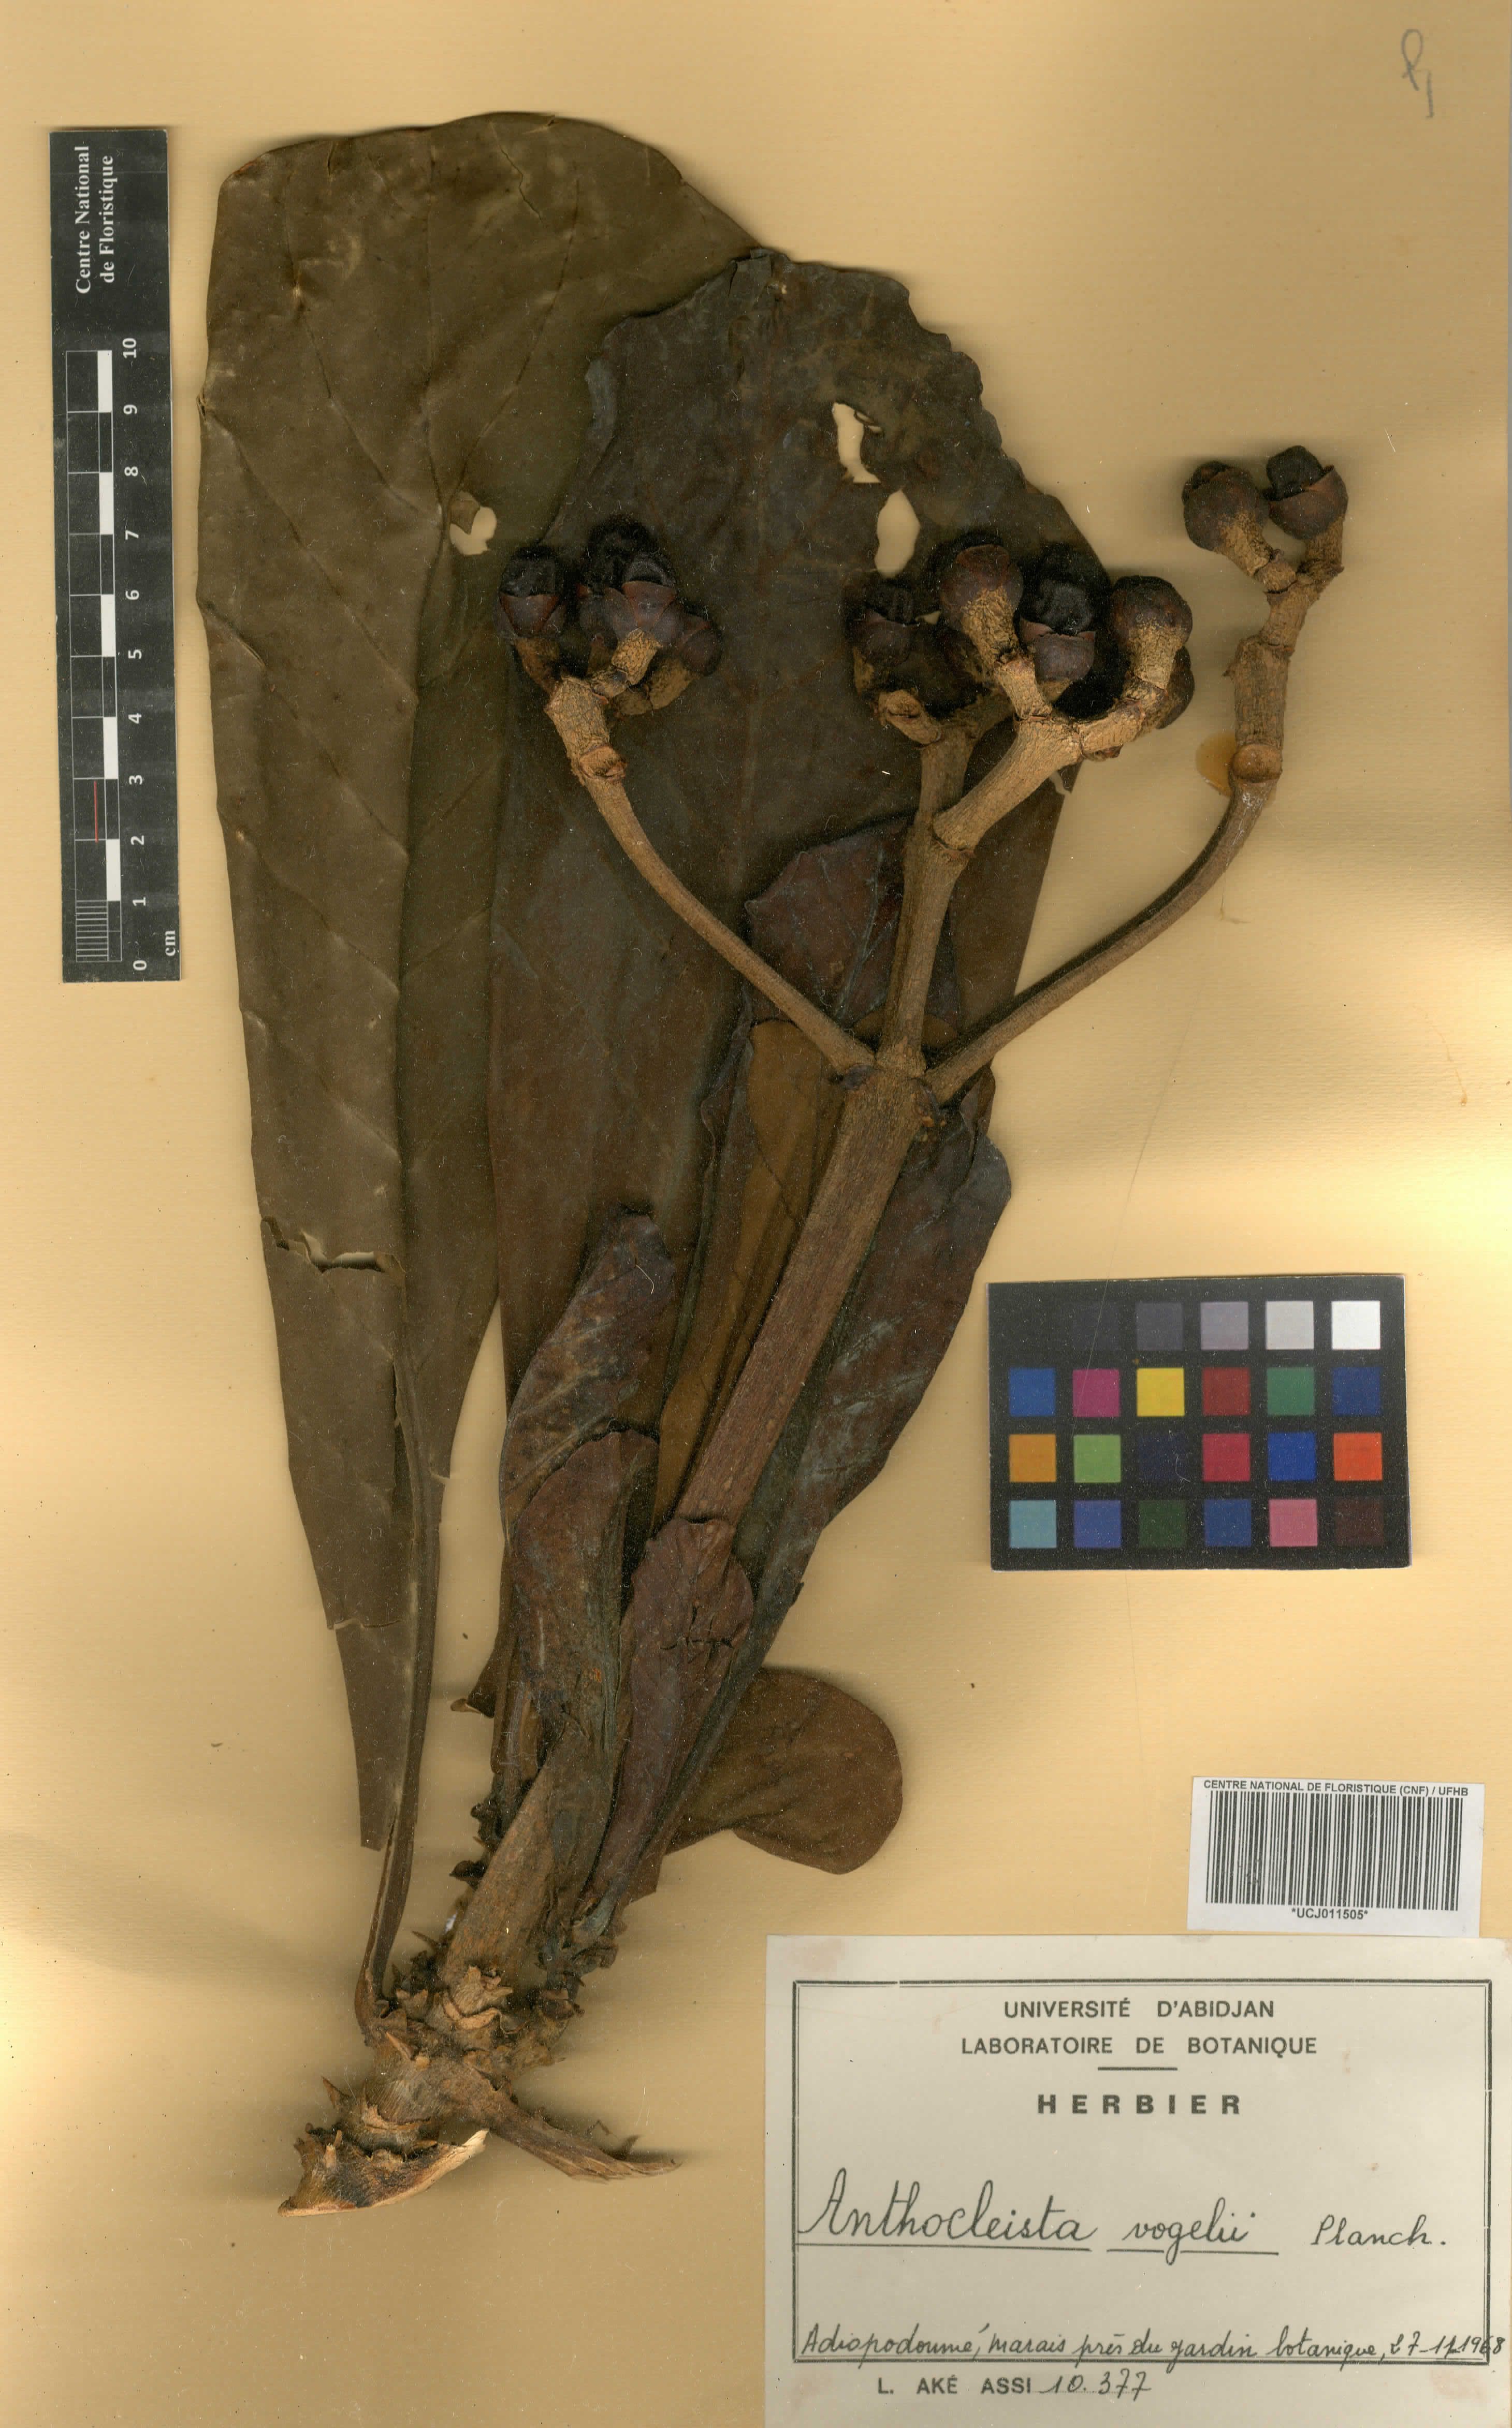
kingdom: Plantae
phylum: Tracheophyta
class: Magnoliopsida
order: Gentianales
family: Gentianaceae
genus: Anthocleista
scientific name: Anthocleista vogelii
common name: Cabbage tree
